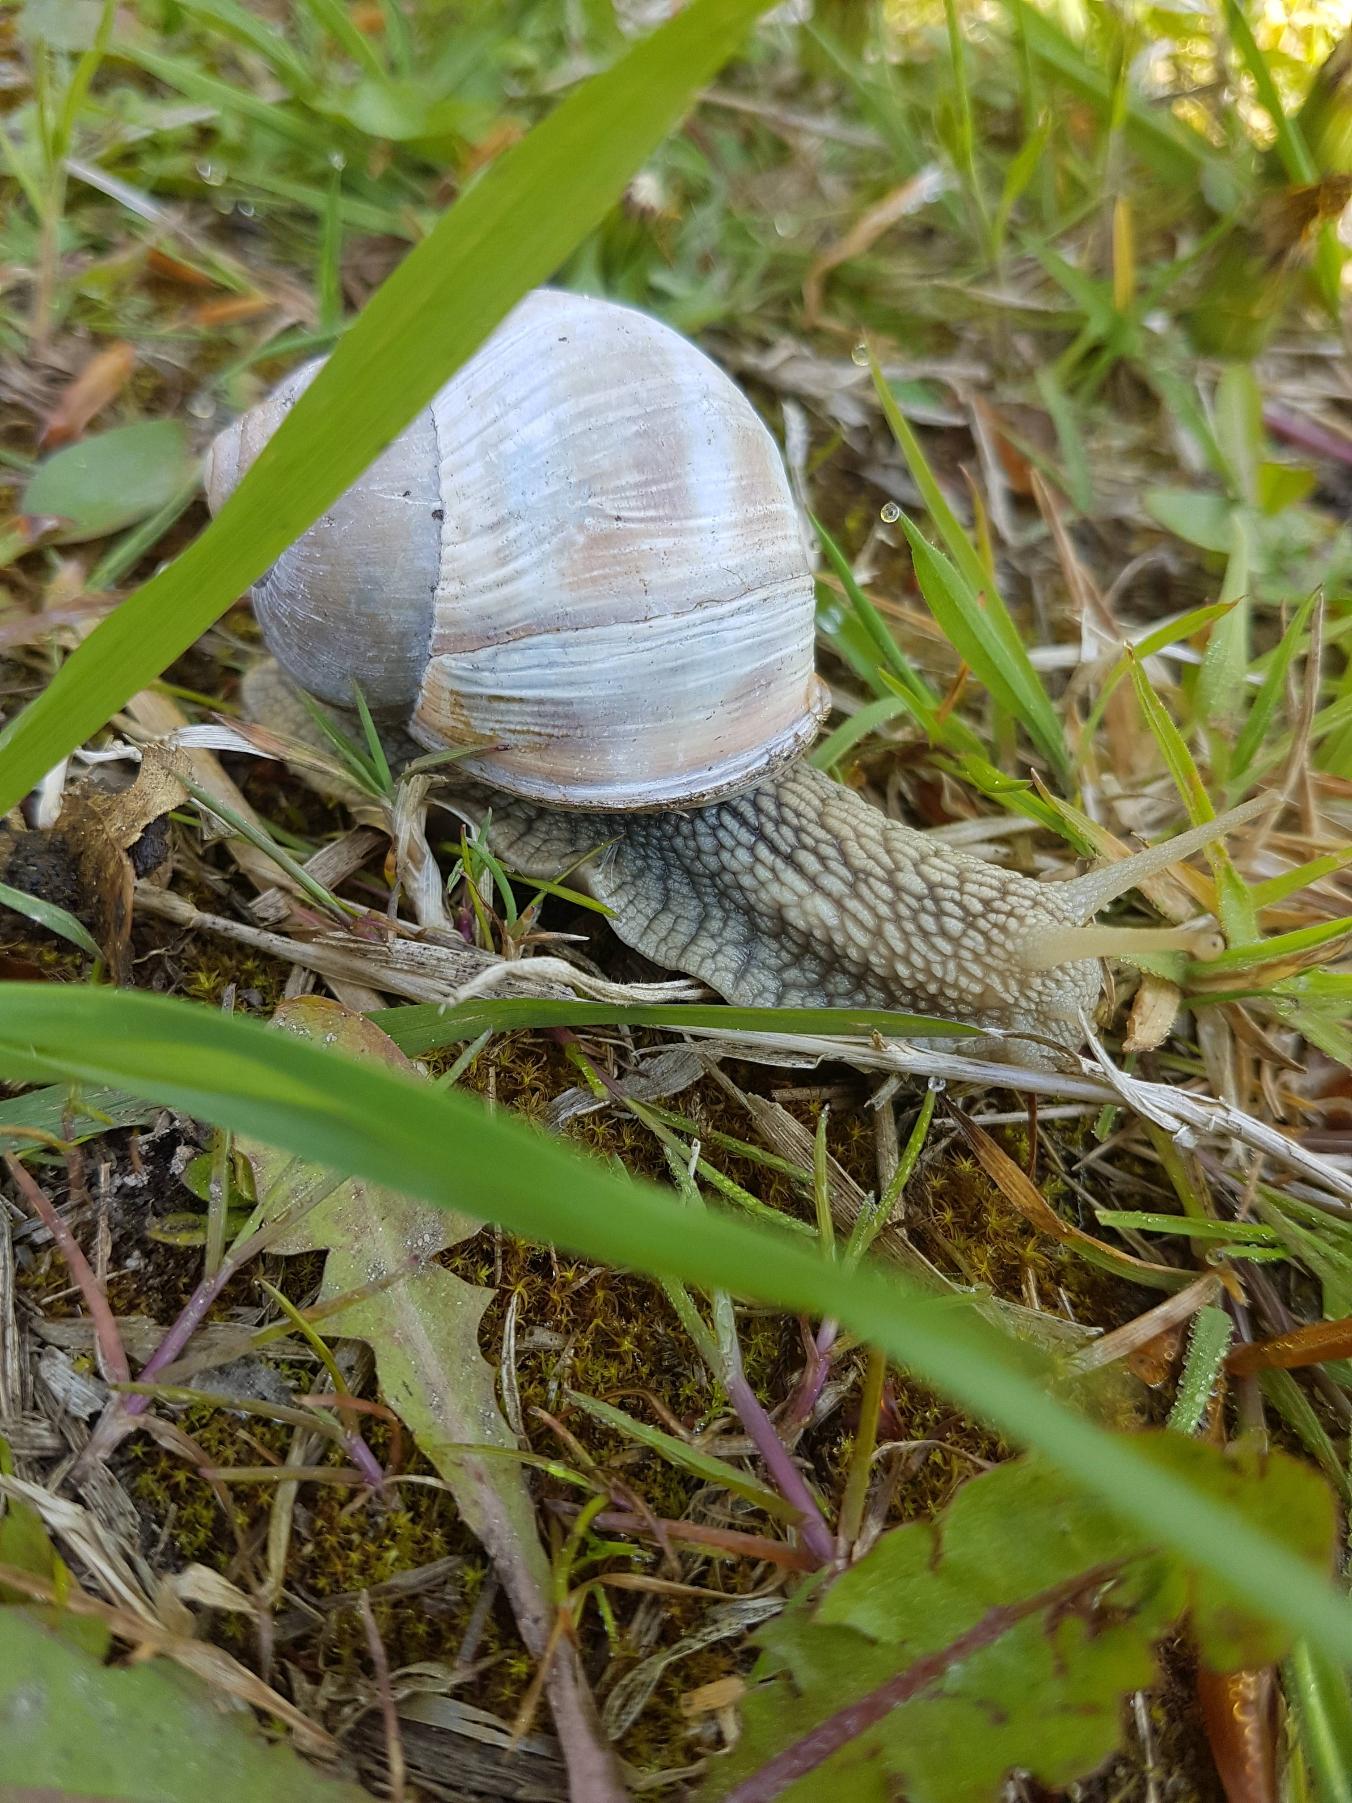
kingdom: Animalia
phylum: Mollusca
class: Gastropoda
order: Stylommatophora
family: Helicidae
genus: Helix
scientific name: Helix pomatia
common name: Vinbjergsnegl
